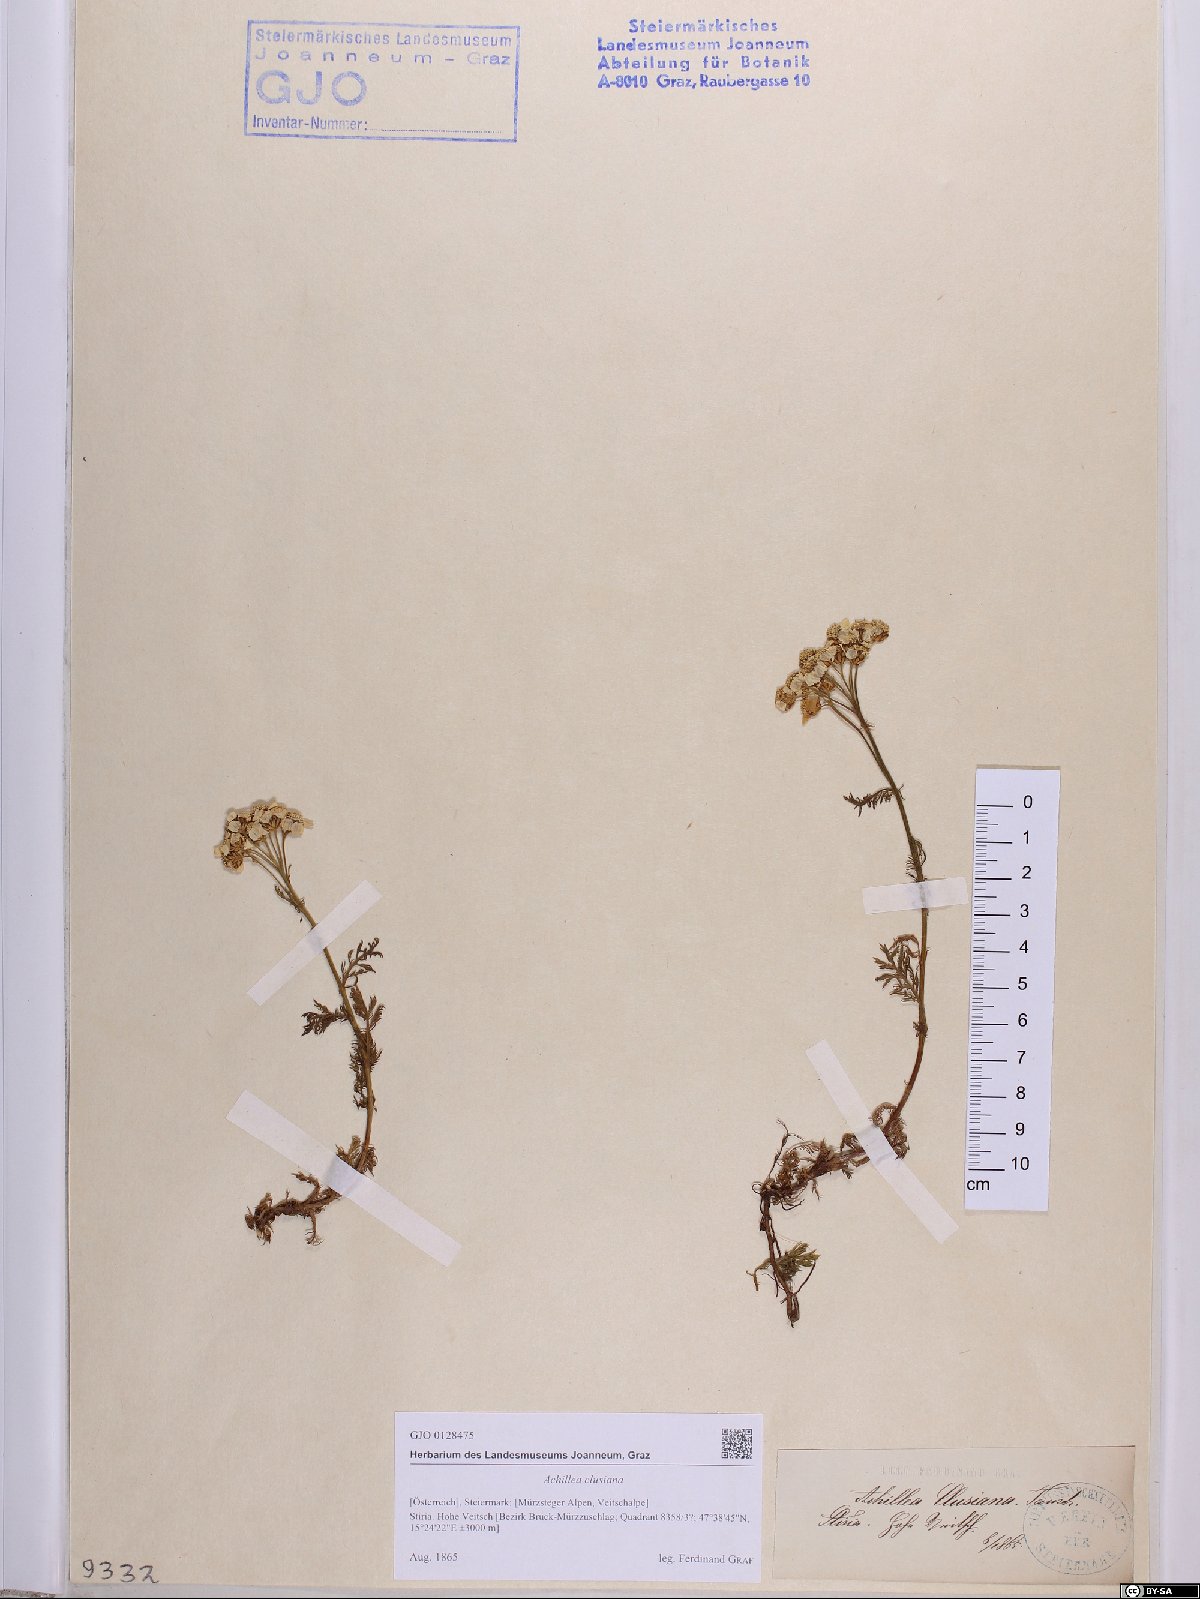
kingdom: Plantae
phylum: Tracheophyta
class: Magnoliopsida
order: Asterales
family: Asteraceae
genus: Achillea
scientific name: Achillea clusiana
